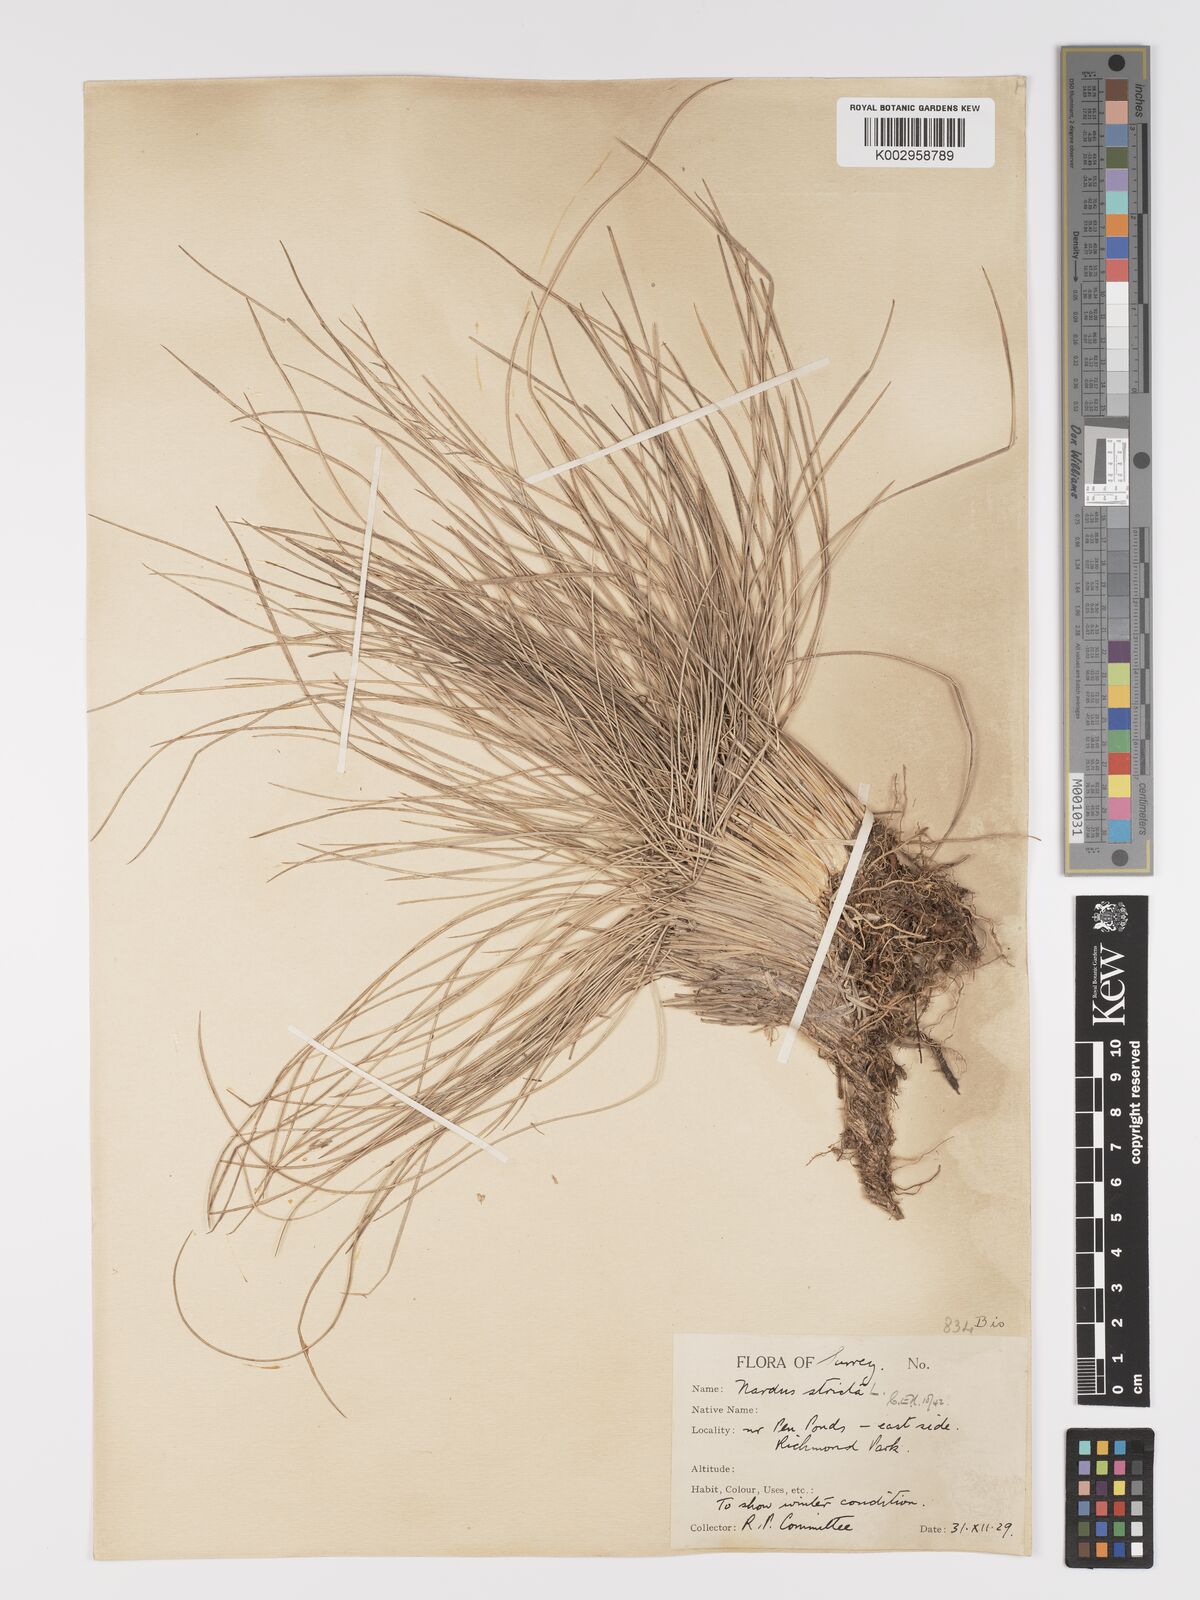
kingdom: Plantae
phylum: Tracheophyta
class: Liliopsida
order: Poales
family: Poaceae
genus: Nardus
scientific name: Nardus stricta
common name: Mat-grass
